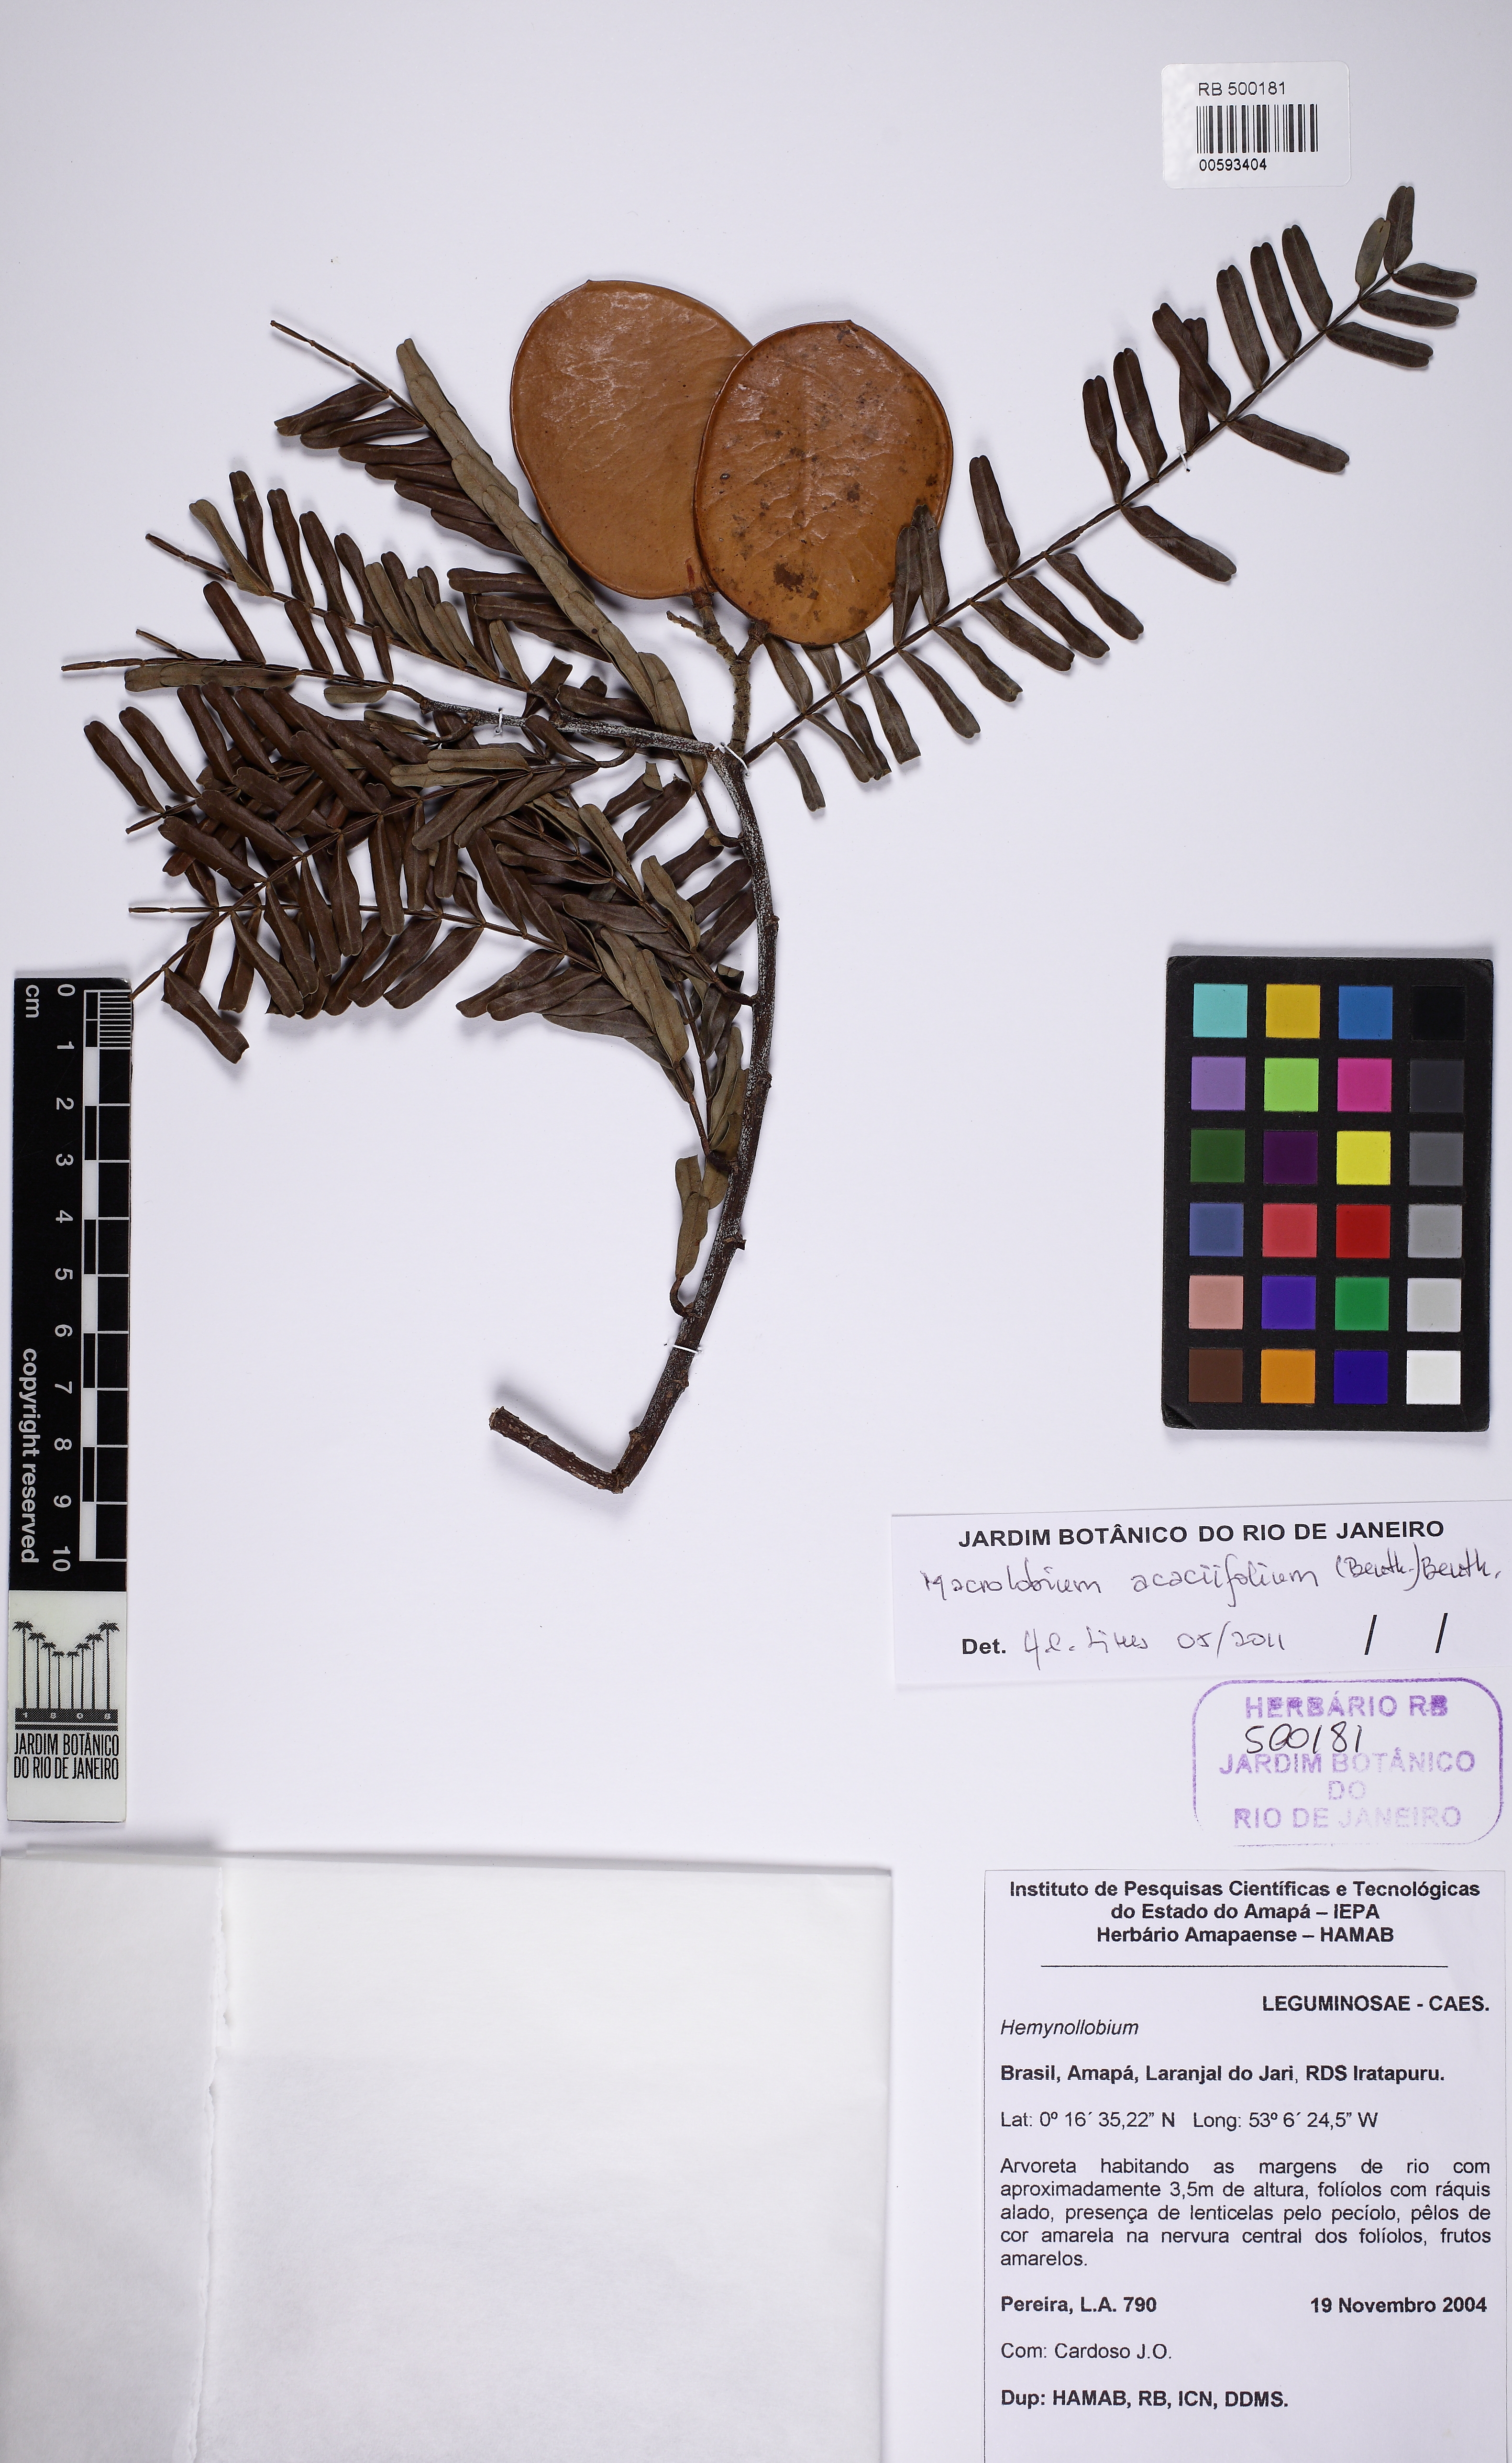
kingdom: Plantae
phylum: Tracheophyta
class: Magnoliopsida
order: Fabales
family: Fabaceae
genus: Macrolobium
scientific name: Macrolobium acaciifolium
